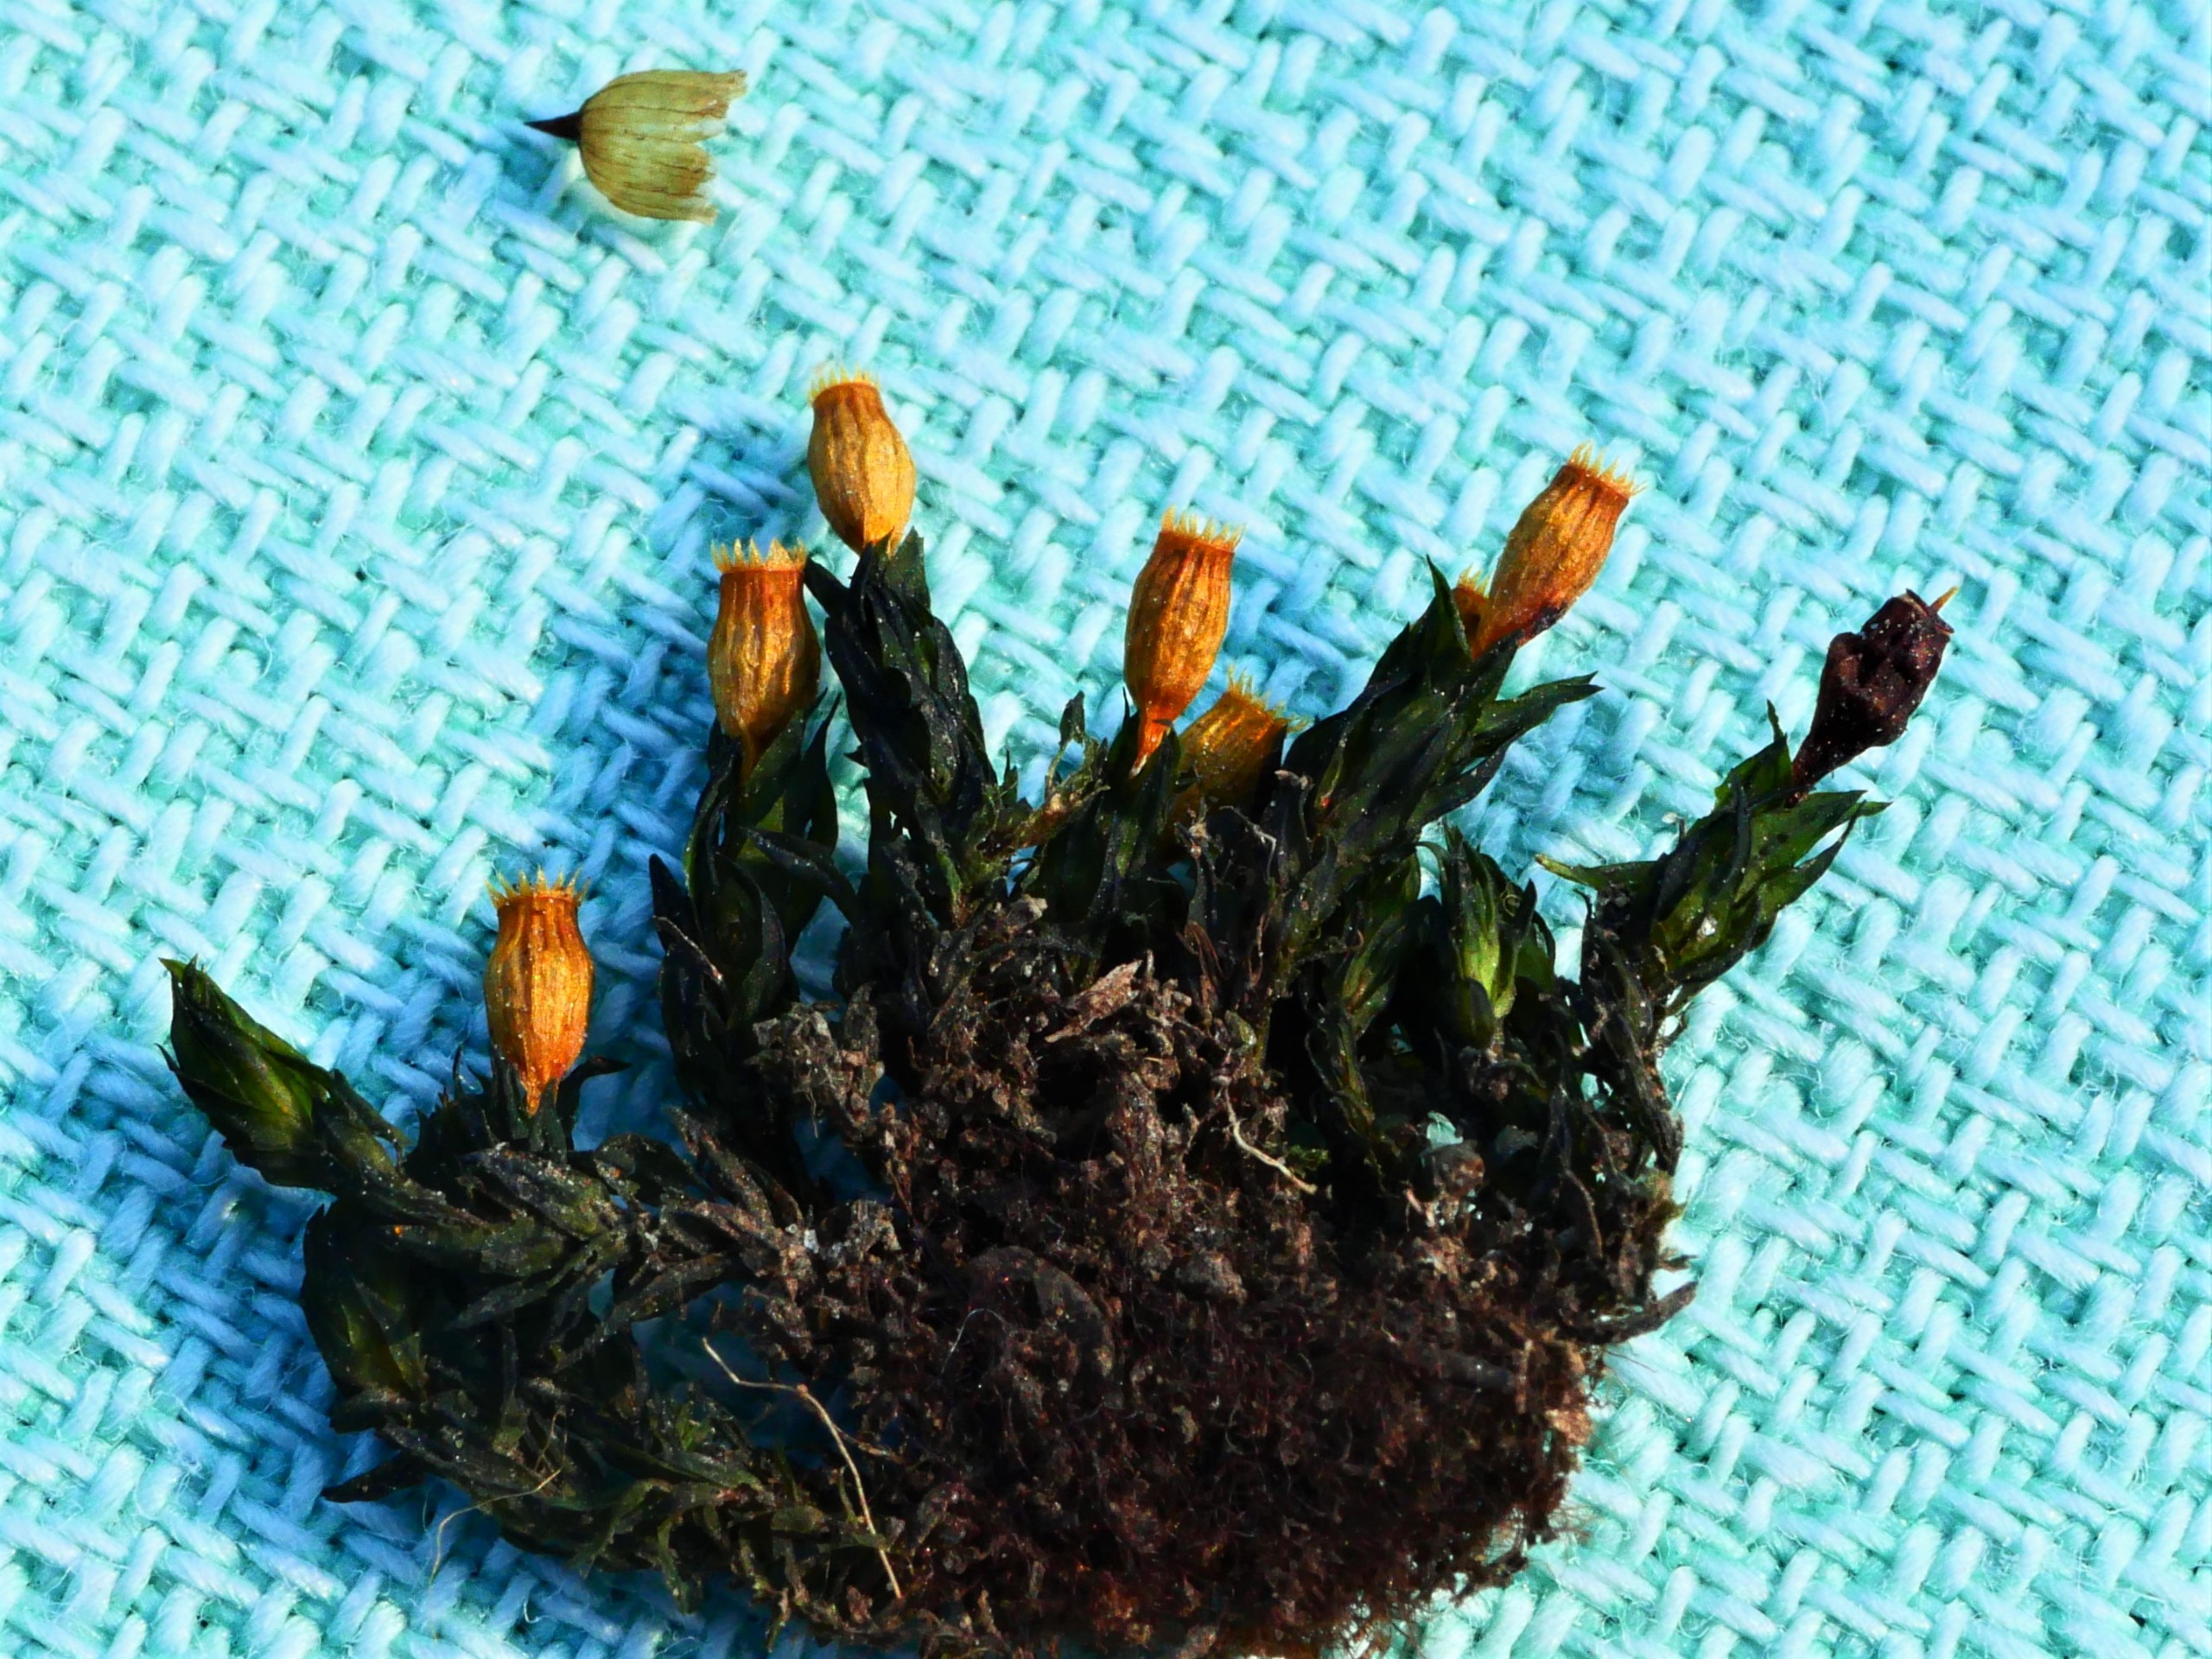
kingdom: Plantae
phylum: Bryophyta
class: Bryopsida
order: Orthotrichales
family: Orthotrichaceae
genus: Orthotrichum
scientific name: Orthotrichum cupulatum
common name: Skål-furehætte
